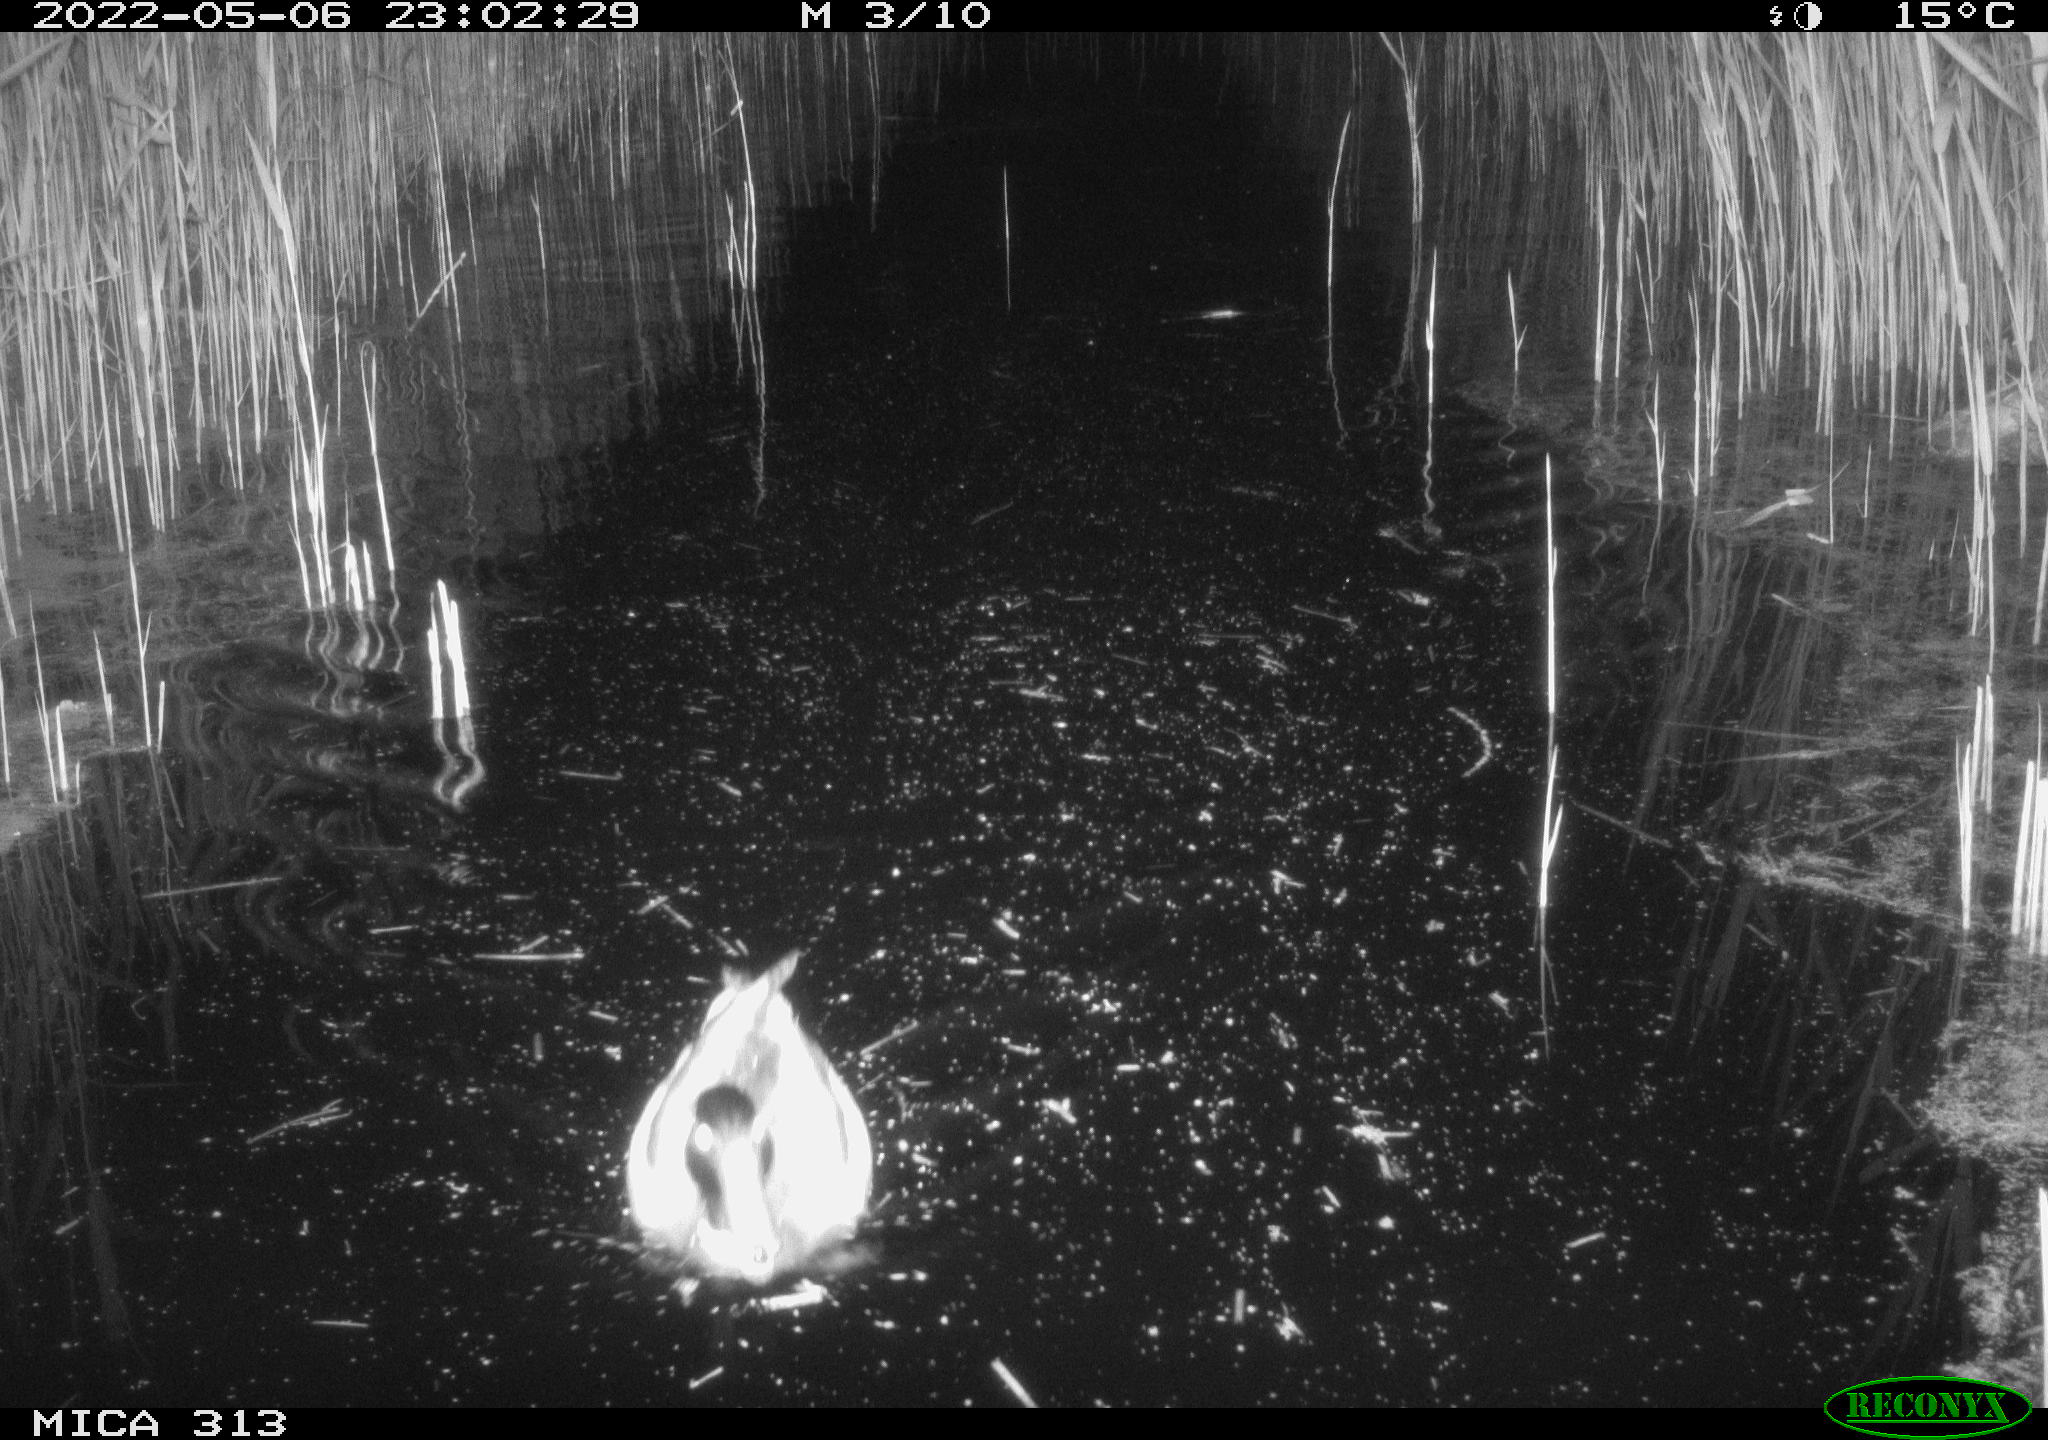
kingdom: Animalia
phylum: Chordata
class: Aves
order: Anseriformes
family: Anatidae
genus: Anas
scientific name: Anas platyrhynchos
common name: Mallard
